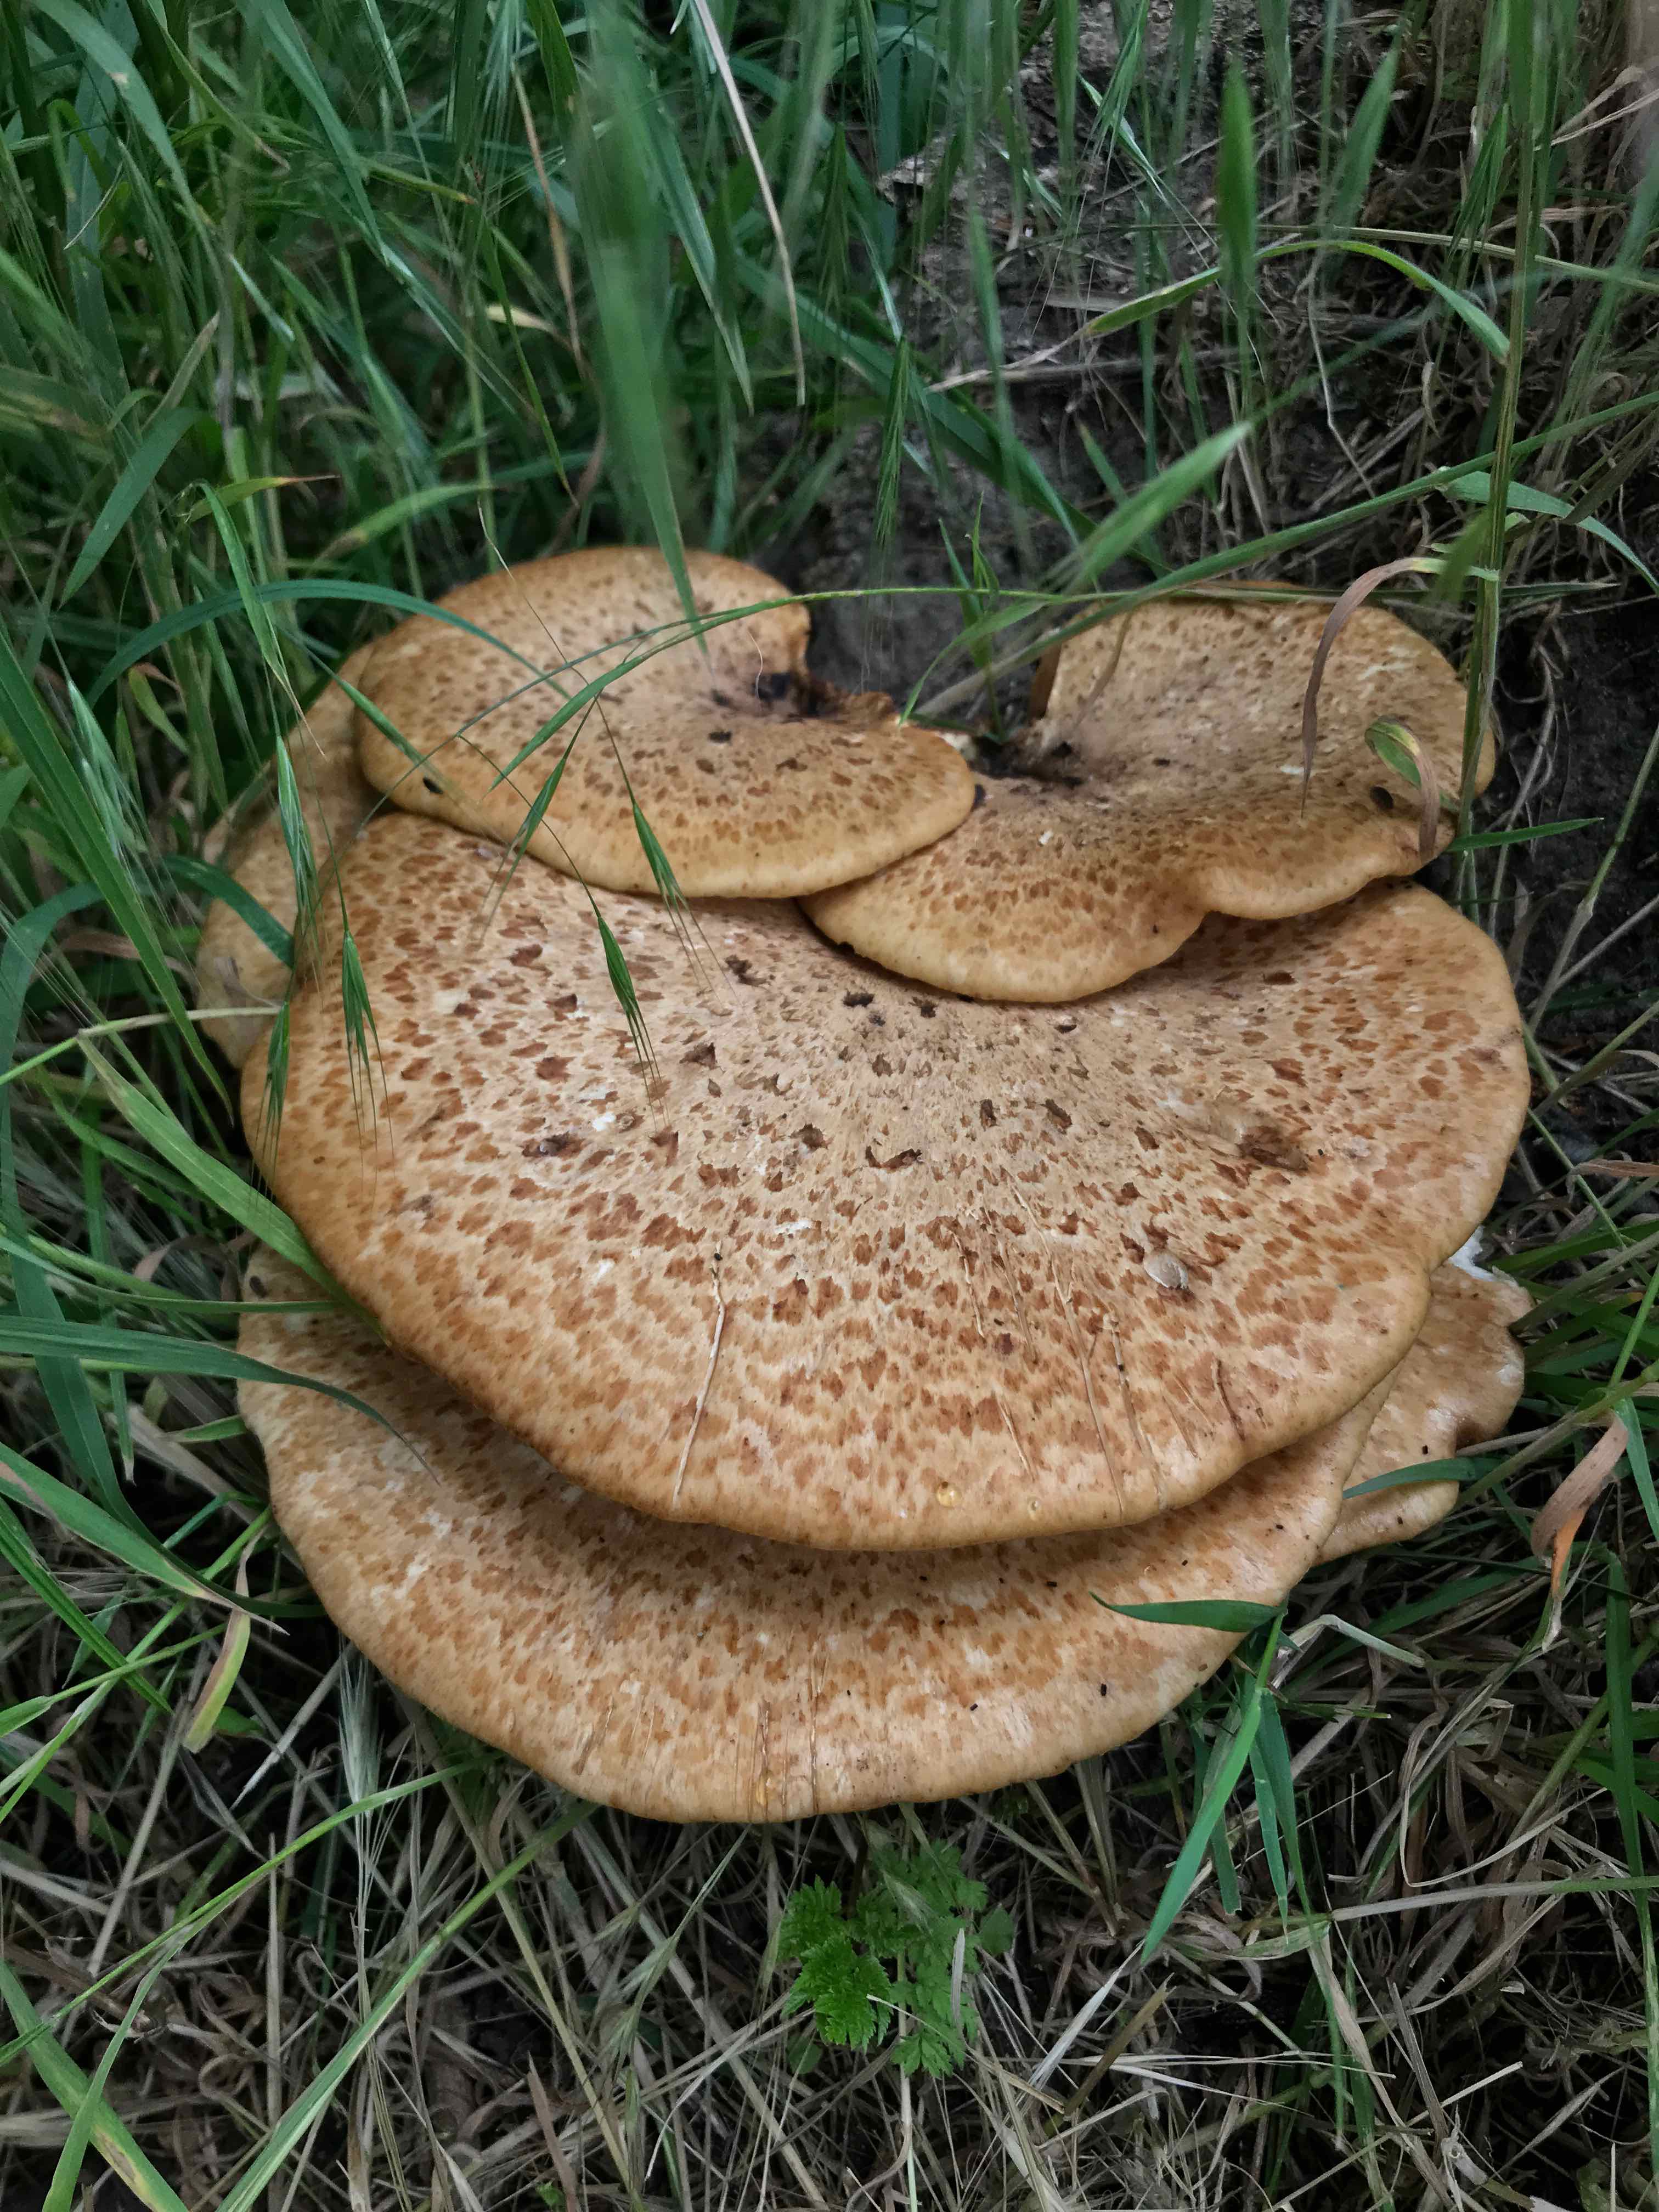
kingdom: Fungi
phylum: Basidiomycota
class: Agaricomycetes
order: Polyporales
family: Polyporaceae
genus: Cerioporus
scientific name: Cerioporus squamosus
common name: skællet stilkporesvamp
